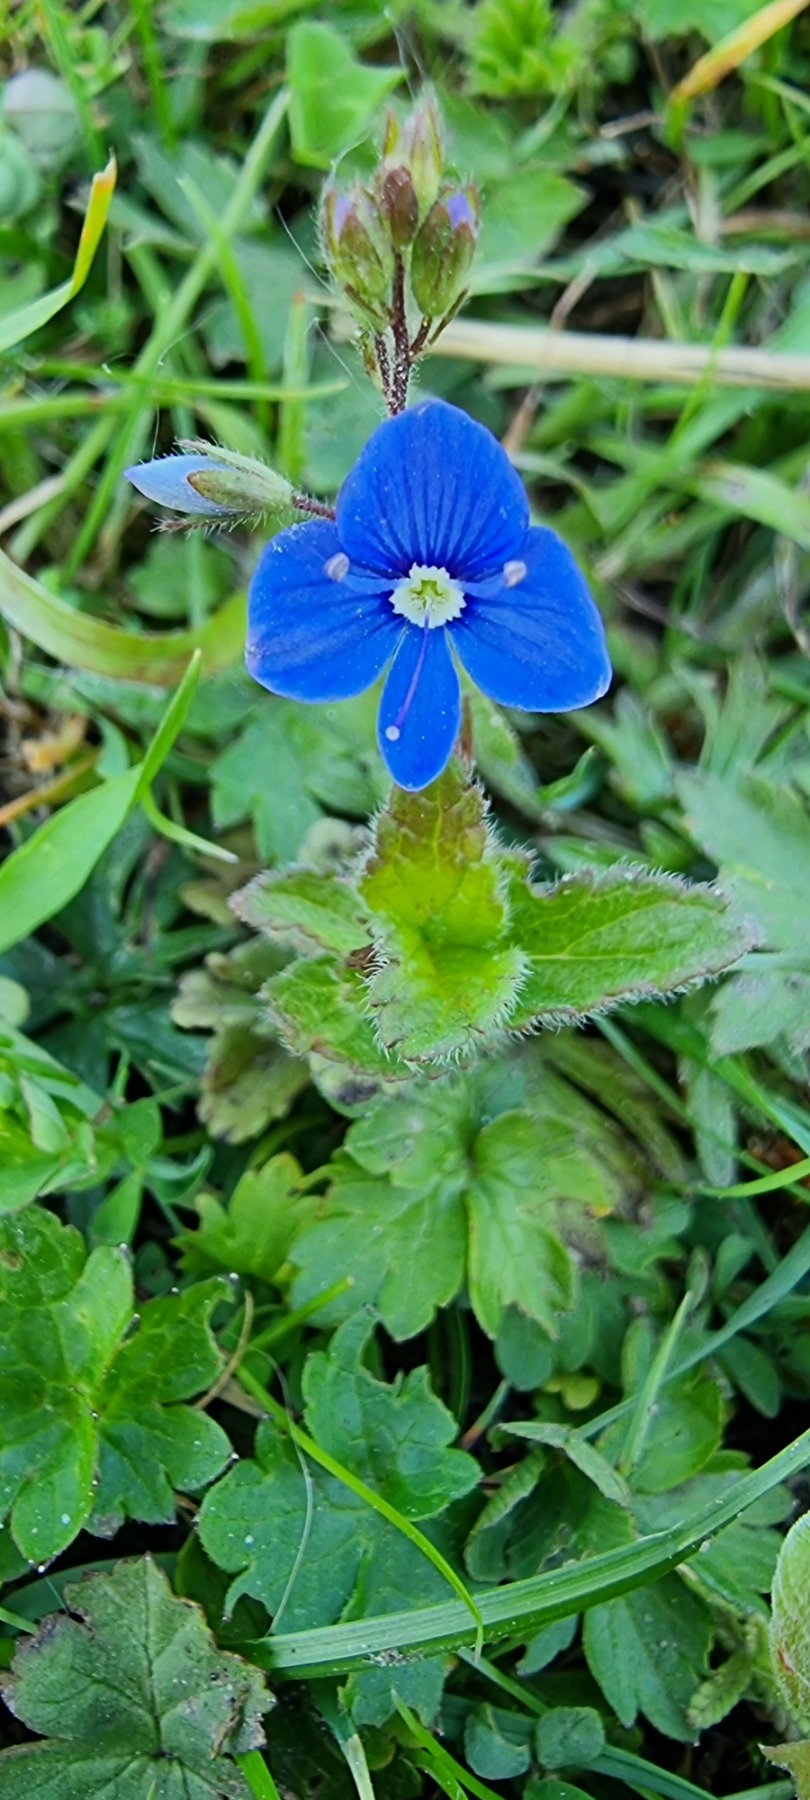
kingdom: Plantae
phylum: Tracheophyta
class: Magnoliopsida
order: Lamiales
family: Plantaginaceae
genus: Veronica
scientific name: Veronica chamaedrys
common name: Tveskægget ærenpris
